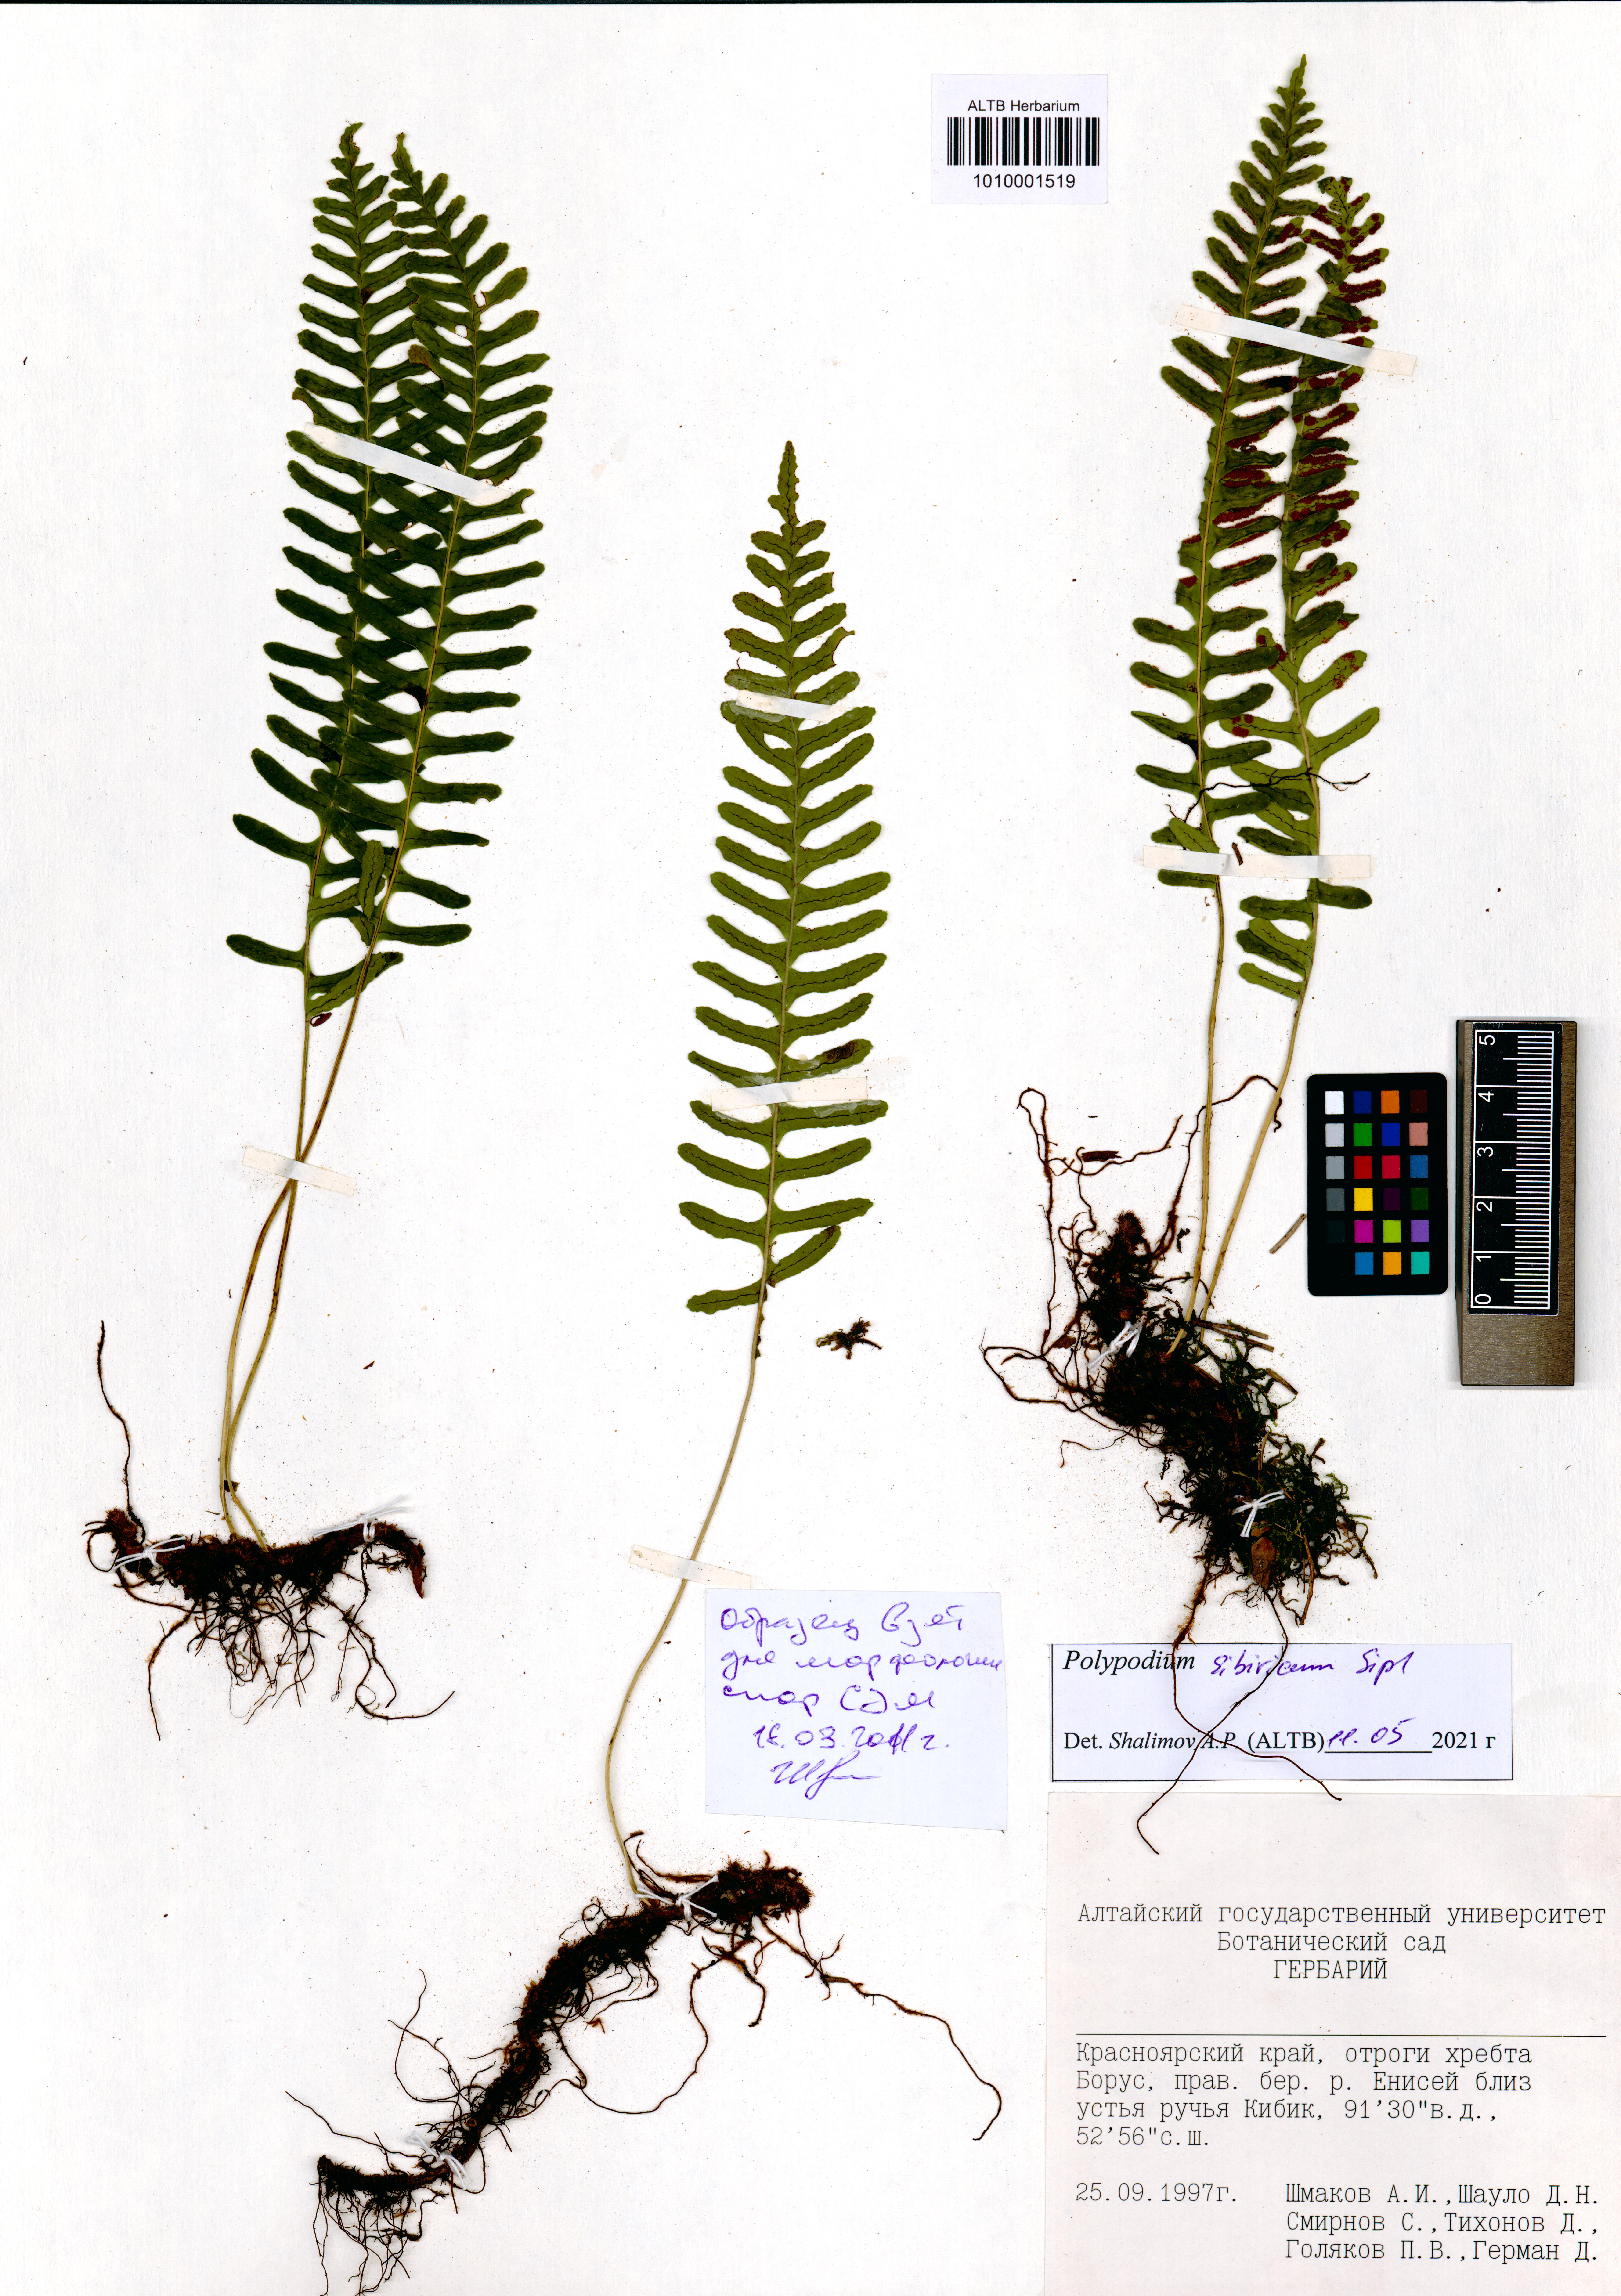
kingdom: Plantae
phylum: Tracheophyta
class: Polypodiopsida
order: Polypodiales
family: Polypodiaceae
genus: Polypodium
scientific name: Polypodium sibiricum
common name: Siberian polypody
